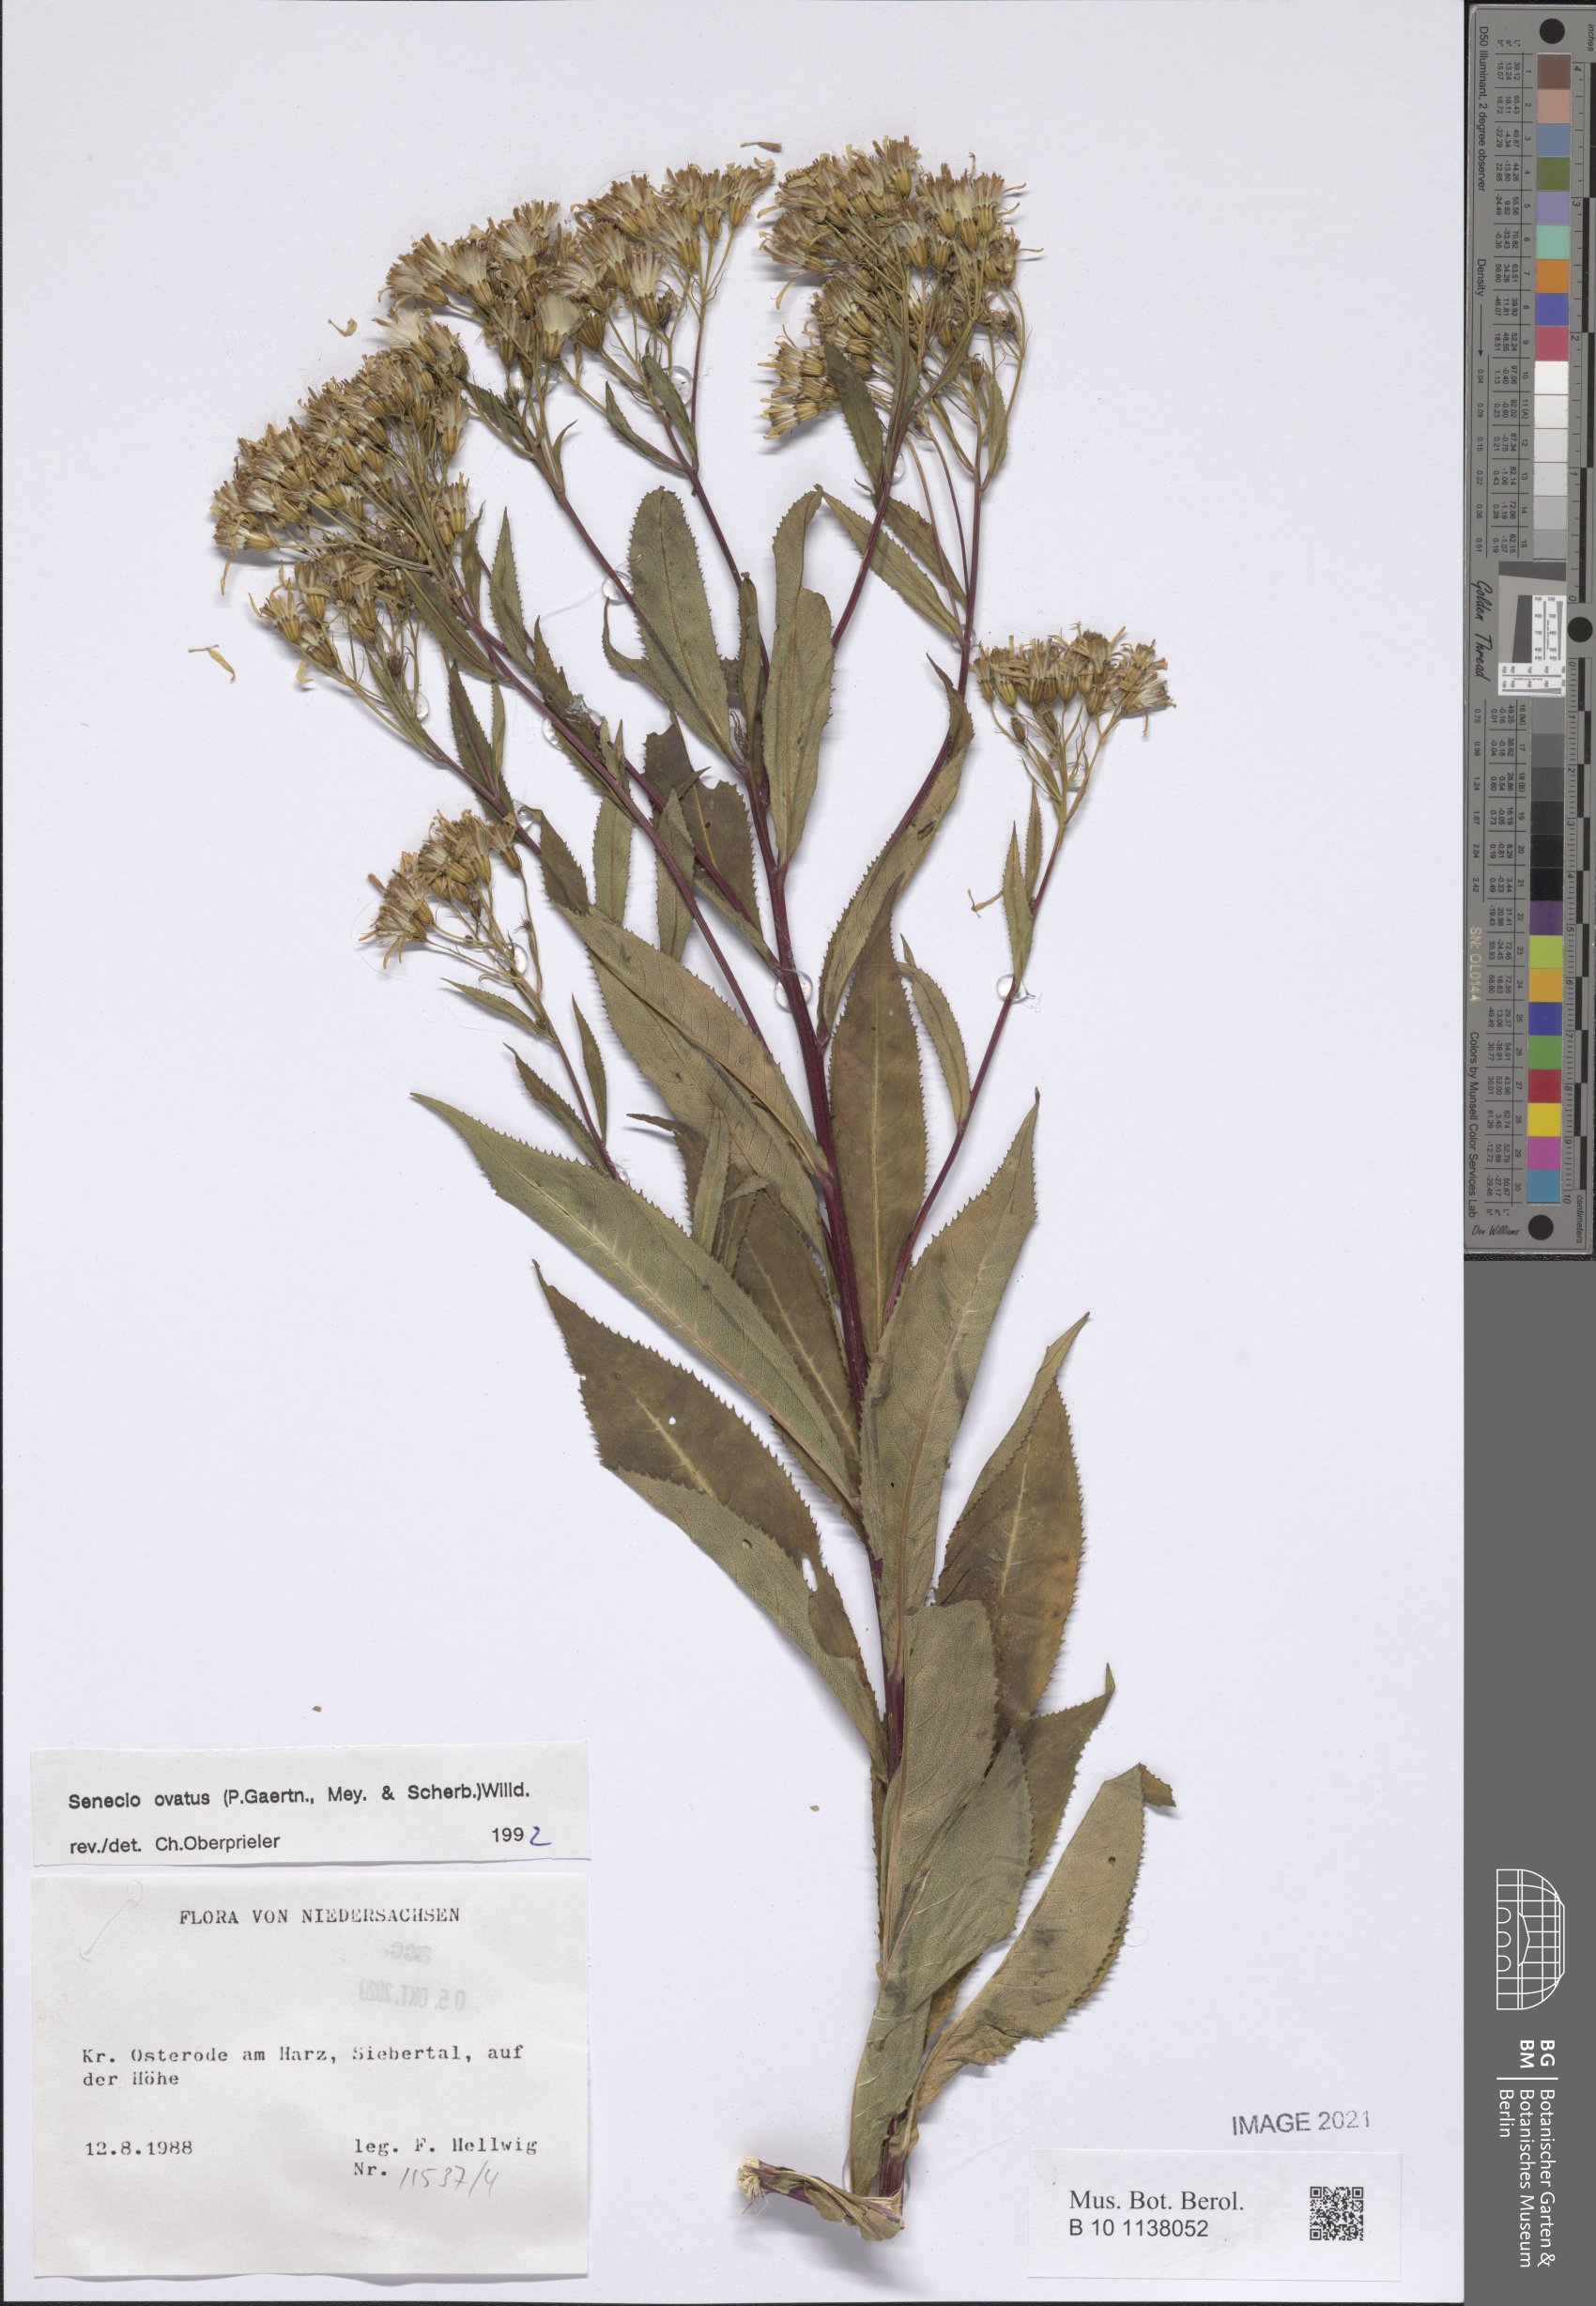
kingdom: Plantae
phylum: Tracheophyta
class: Magnoliopsida
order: Asterales
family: Asteraceae
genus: Senecio
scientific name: Senecio ovatus
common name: Wood ragwort
